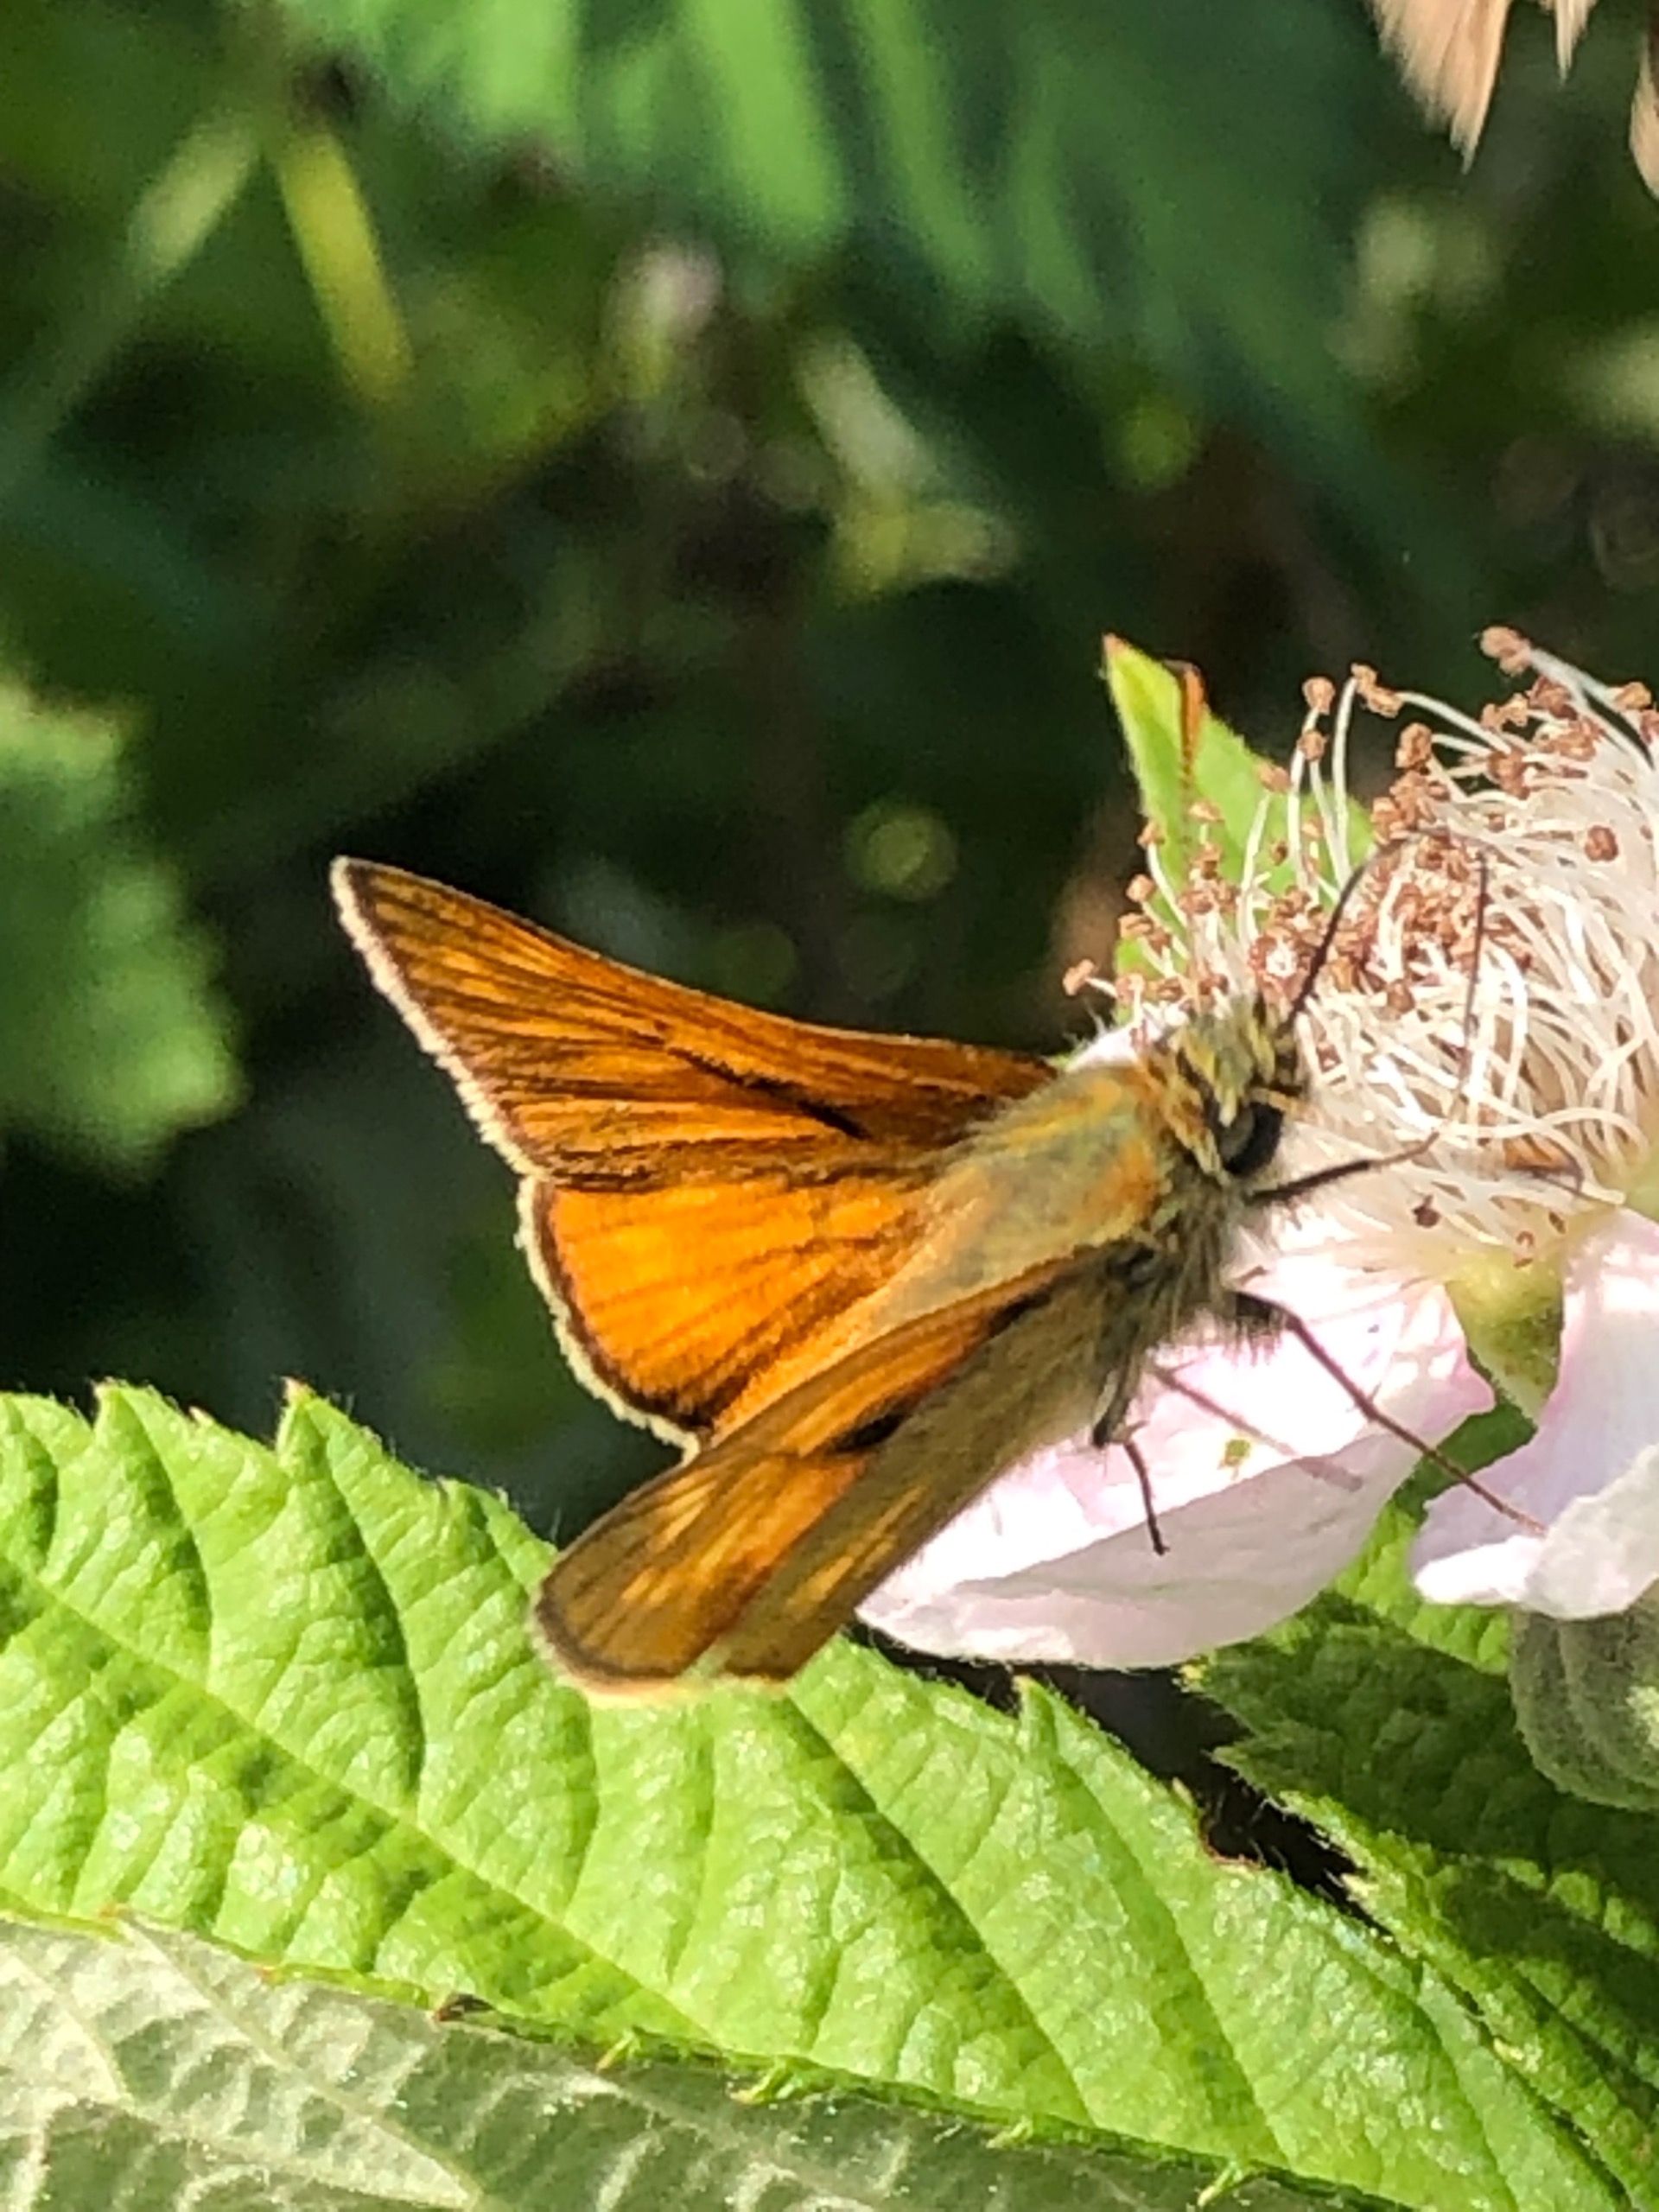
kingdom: Animalia
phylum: Arthropoda
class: Insecta
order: Lepidoptera
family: Hesperiidae
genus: Ochlodes
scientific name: Ochlodes venata
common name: Stor bredpande
